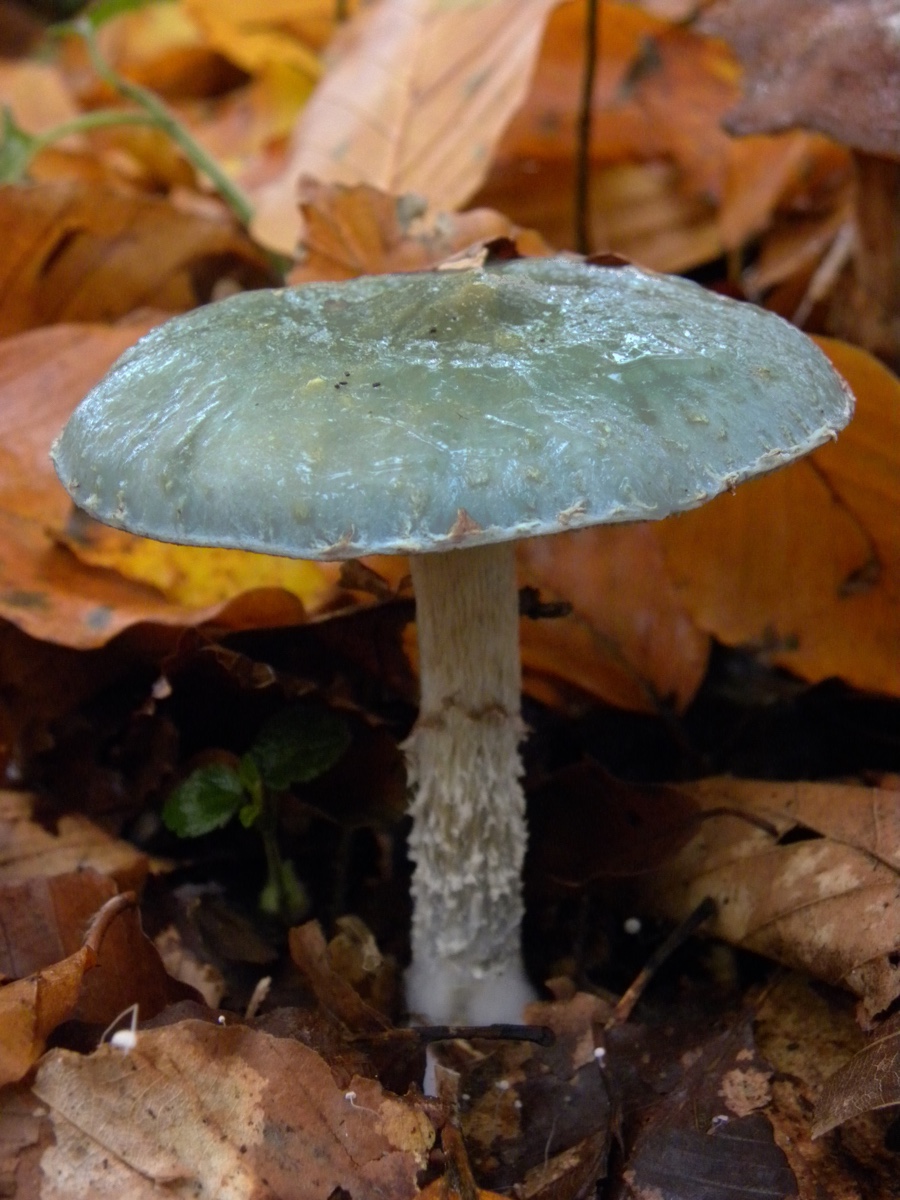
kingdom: Fungi
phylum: Basidiomycota
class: Agaricomycetes
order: Agaricales
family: Strophariaceae
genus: Stropharia
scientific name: Stropharia cyanea
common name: blågrøn bredblad
